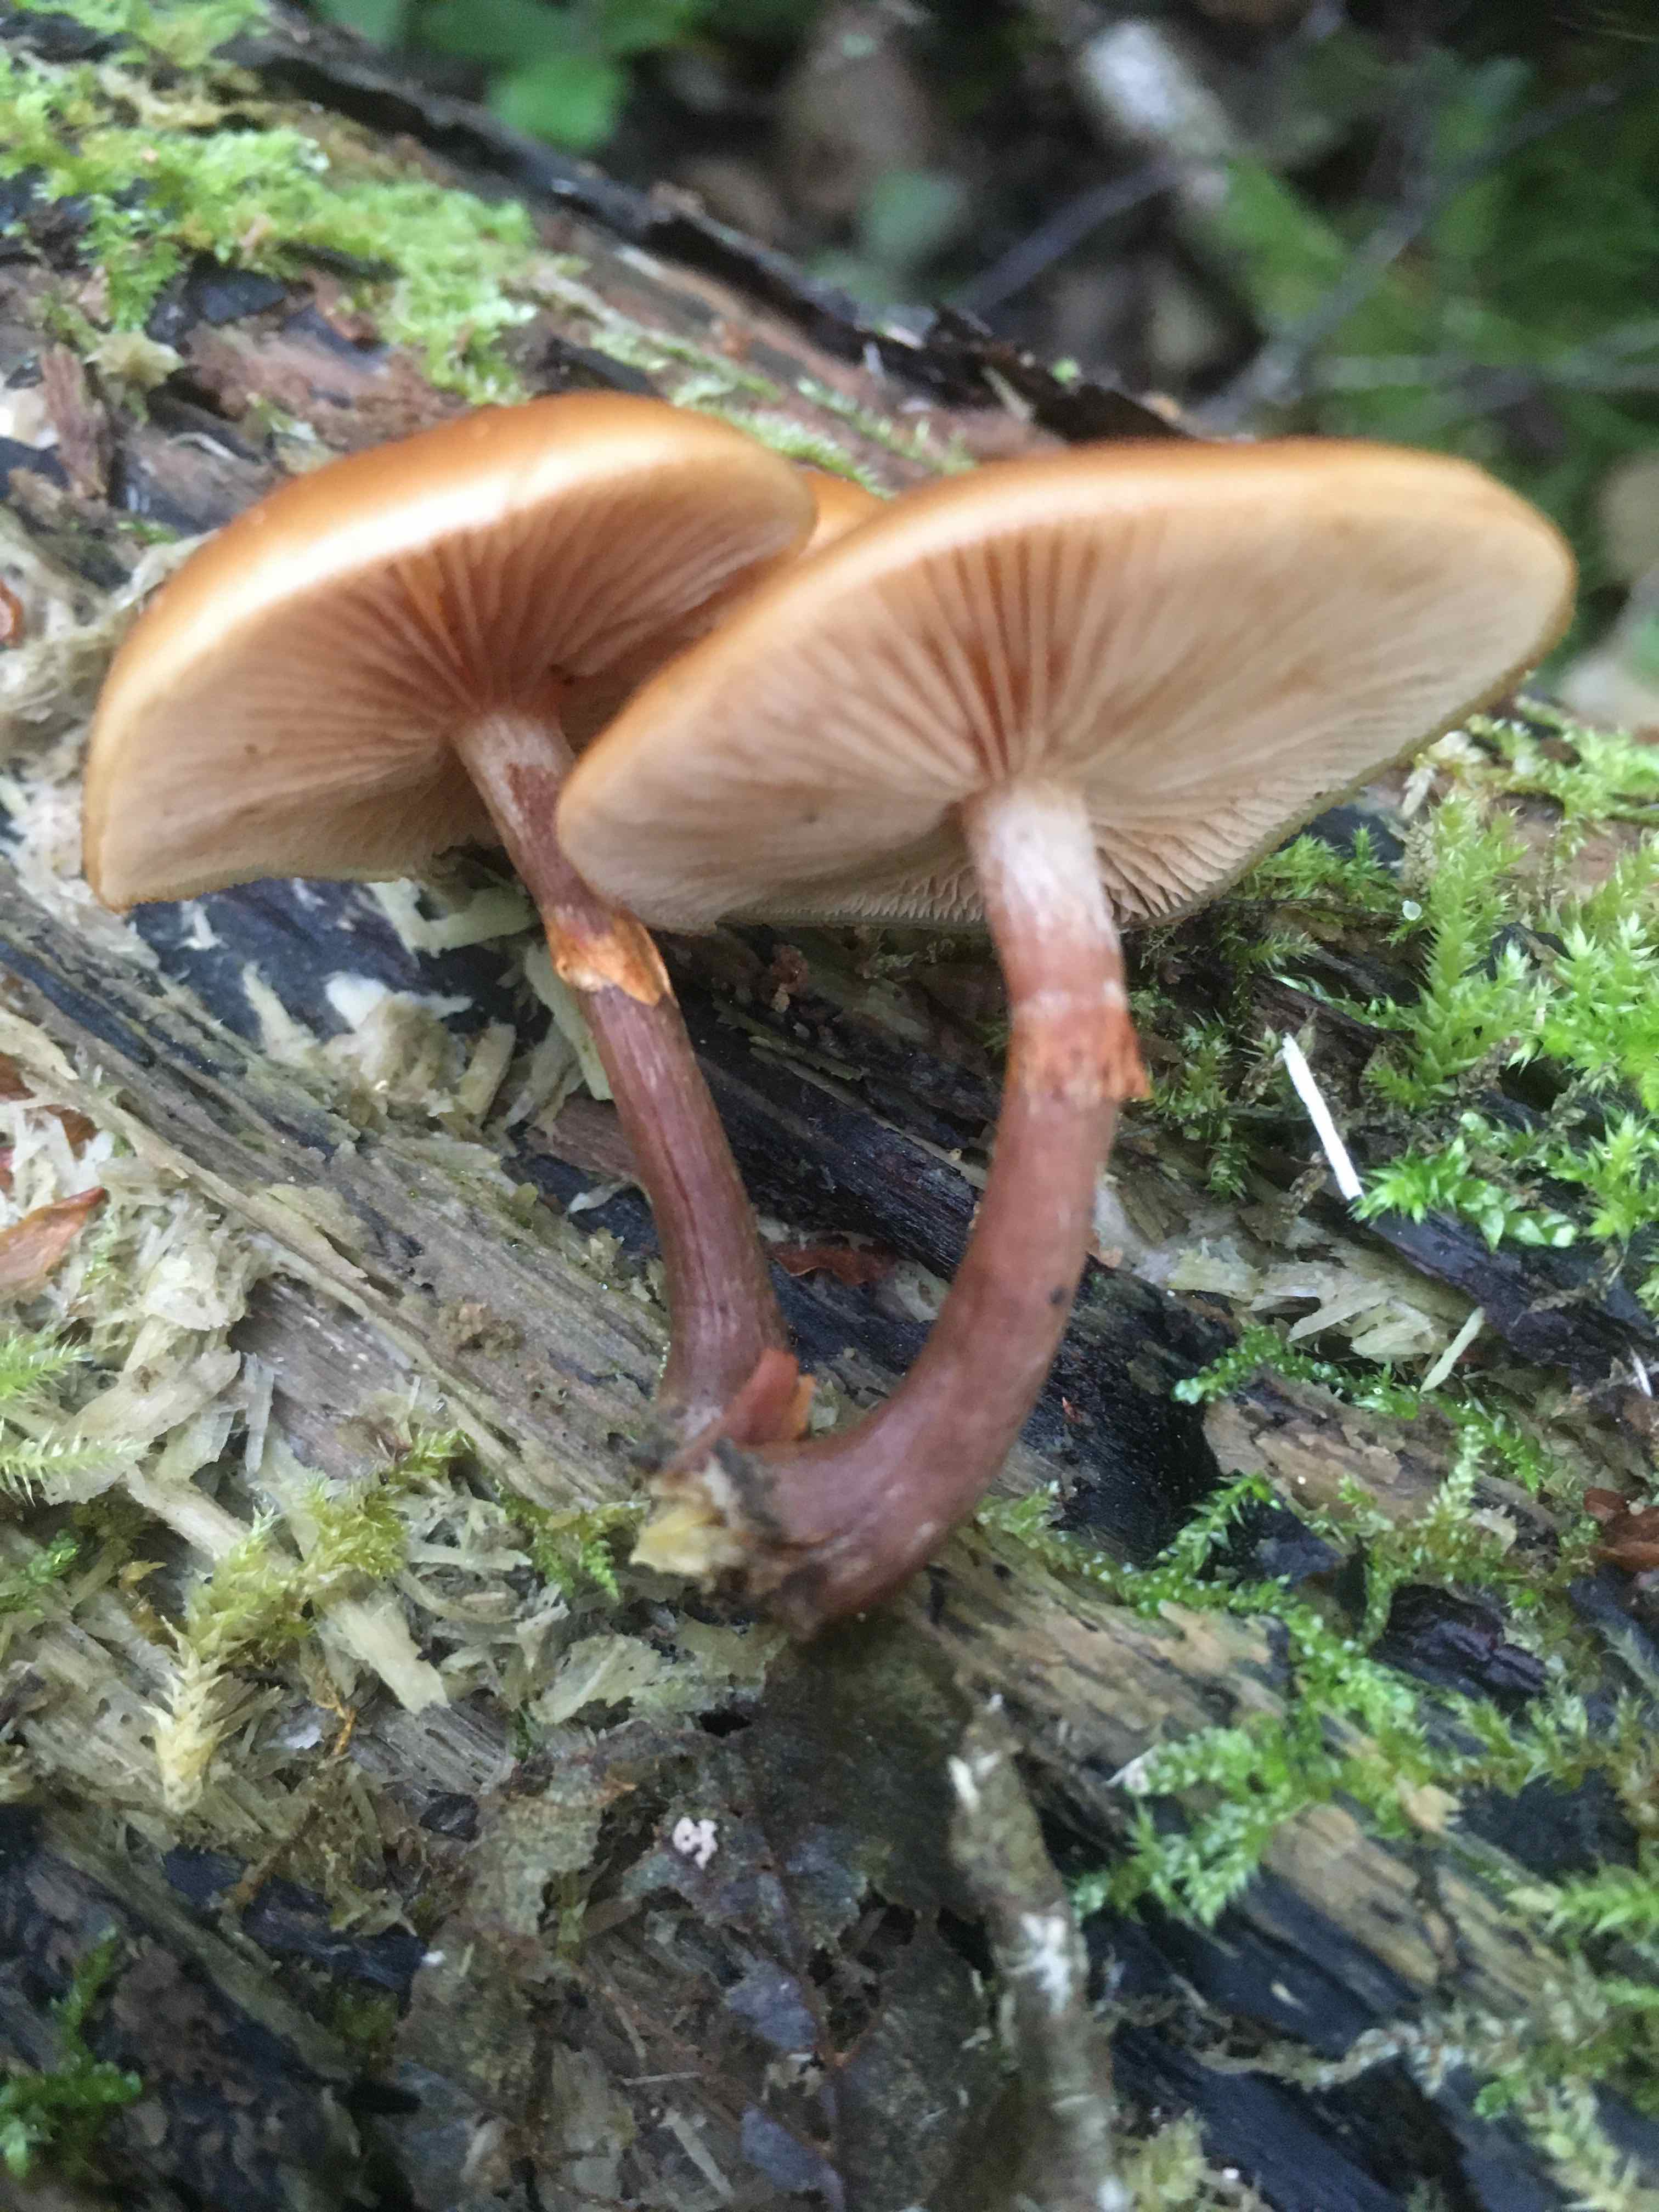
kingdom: Fungi
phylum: Basidiomycota
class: Agaricomycetes
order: Agaricales
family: Hymenogastraceae
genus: Galerina
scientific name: Galerina marginata
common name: randbæltet hjelmhat
